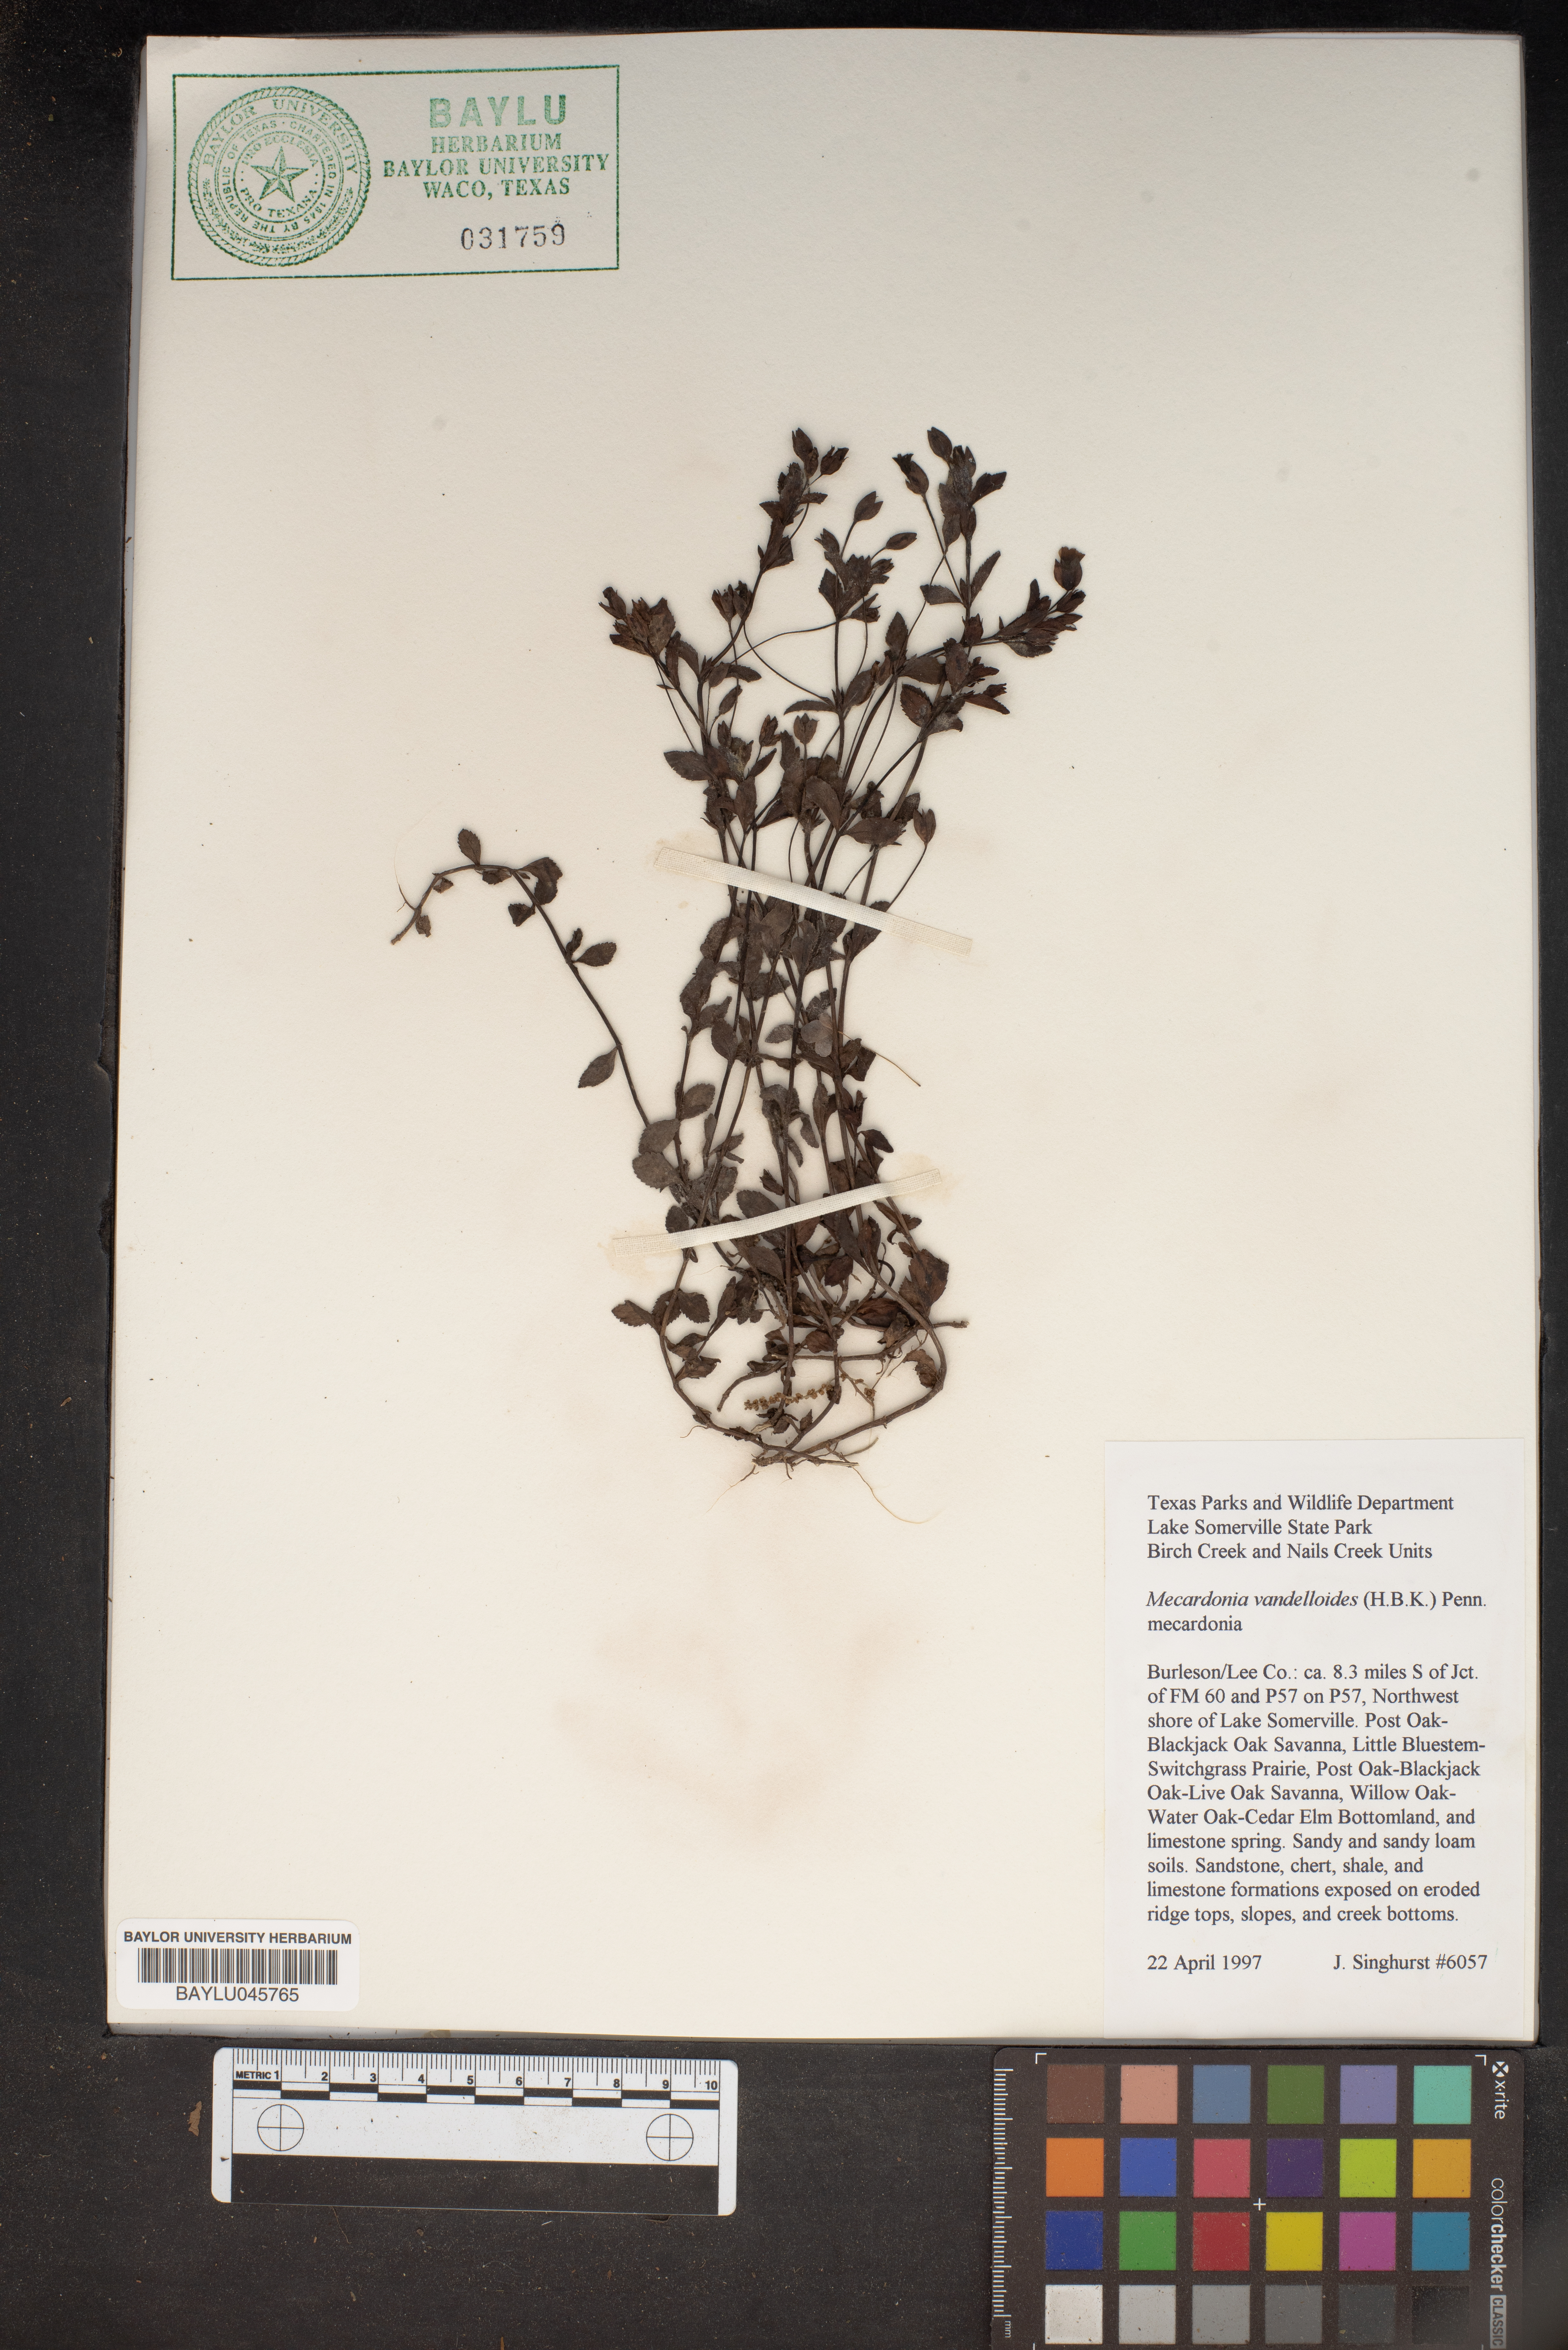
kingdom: Plantae
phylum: Tracheophyta
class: Magnoliopsida
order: Lamiales
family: Plantaginaceae
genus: Mecardonia
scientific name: Mecardonia procumbens
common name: Baby jump-up
